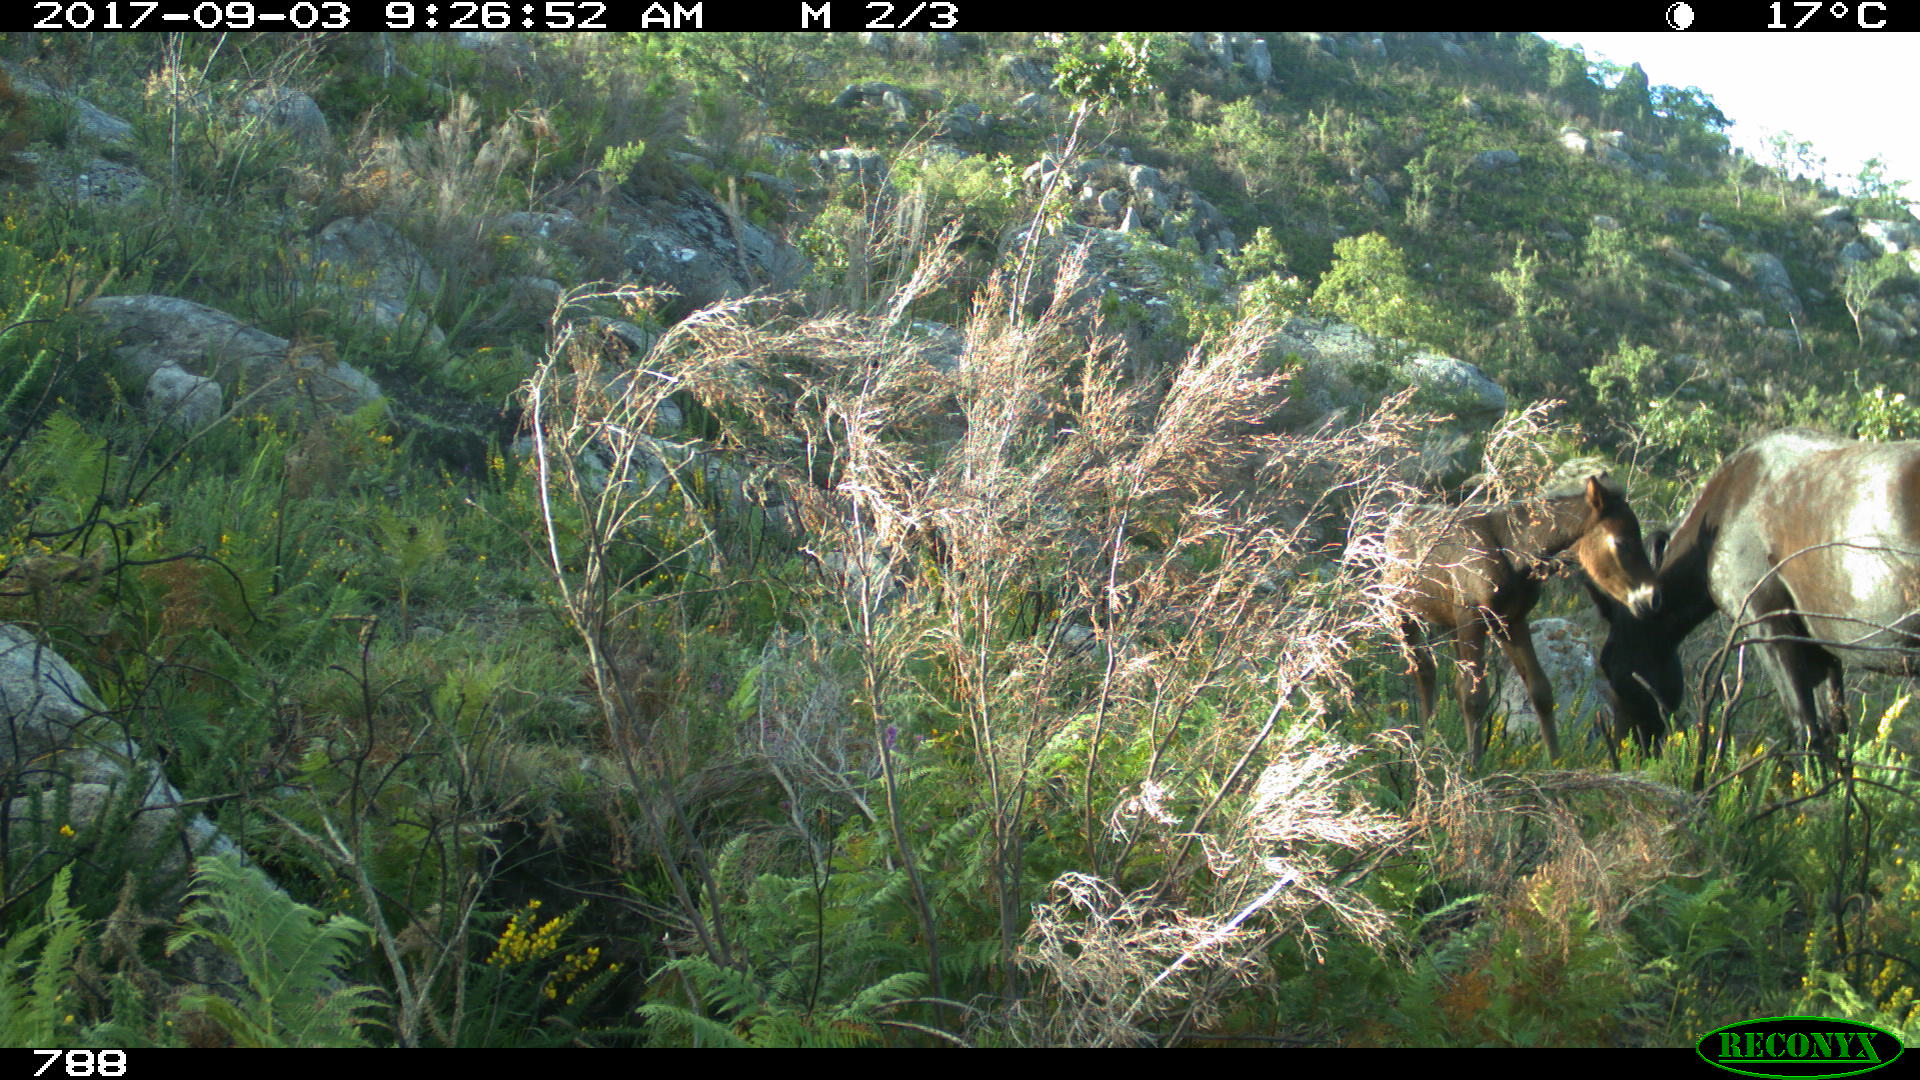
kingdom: Animalia
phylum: Chordata
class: Mammalia
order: Perissodactyla
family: Equidae
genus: Equus
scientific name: Equus caballus
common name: Horse
